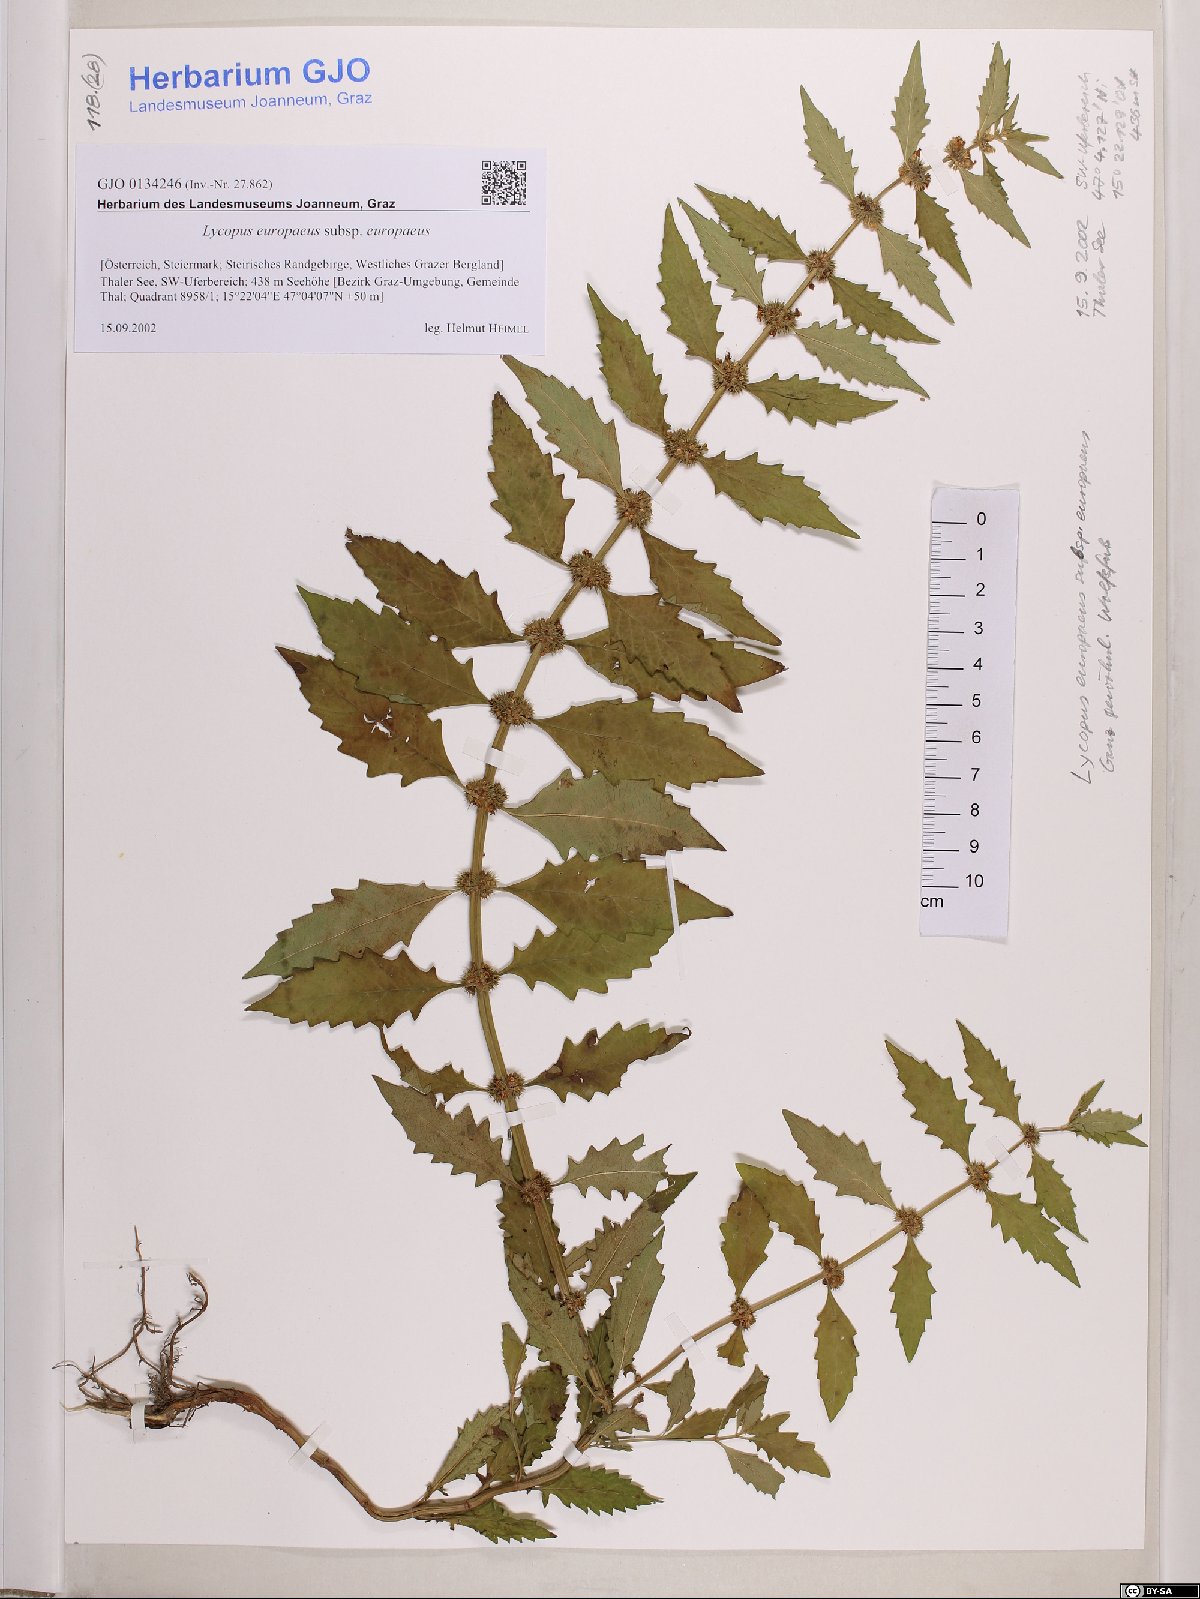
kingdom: Plantae
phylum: Tracheophyta
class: Magnoliopsida
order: Lamiales
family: Lamiaceae
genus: Lycopus
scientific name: Lycopus europaeus
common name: European bugleweed
